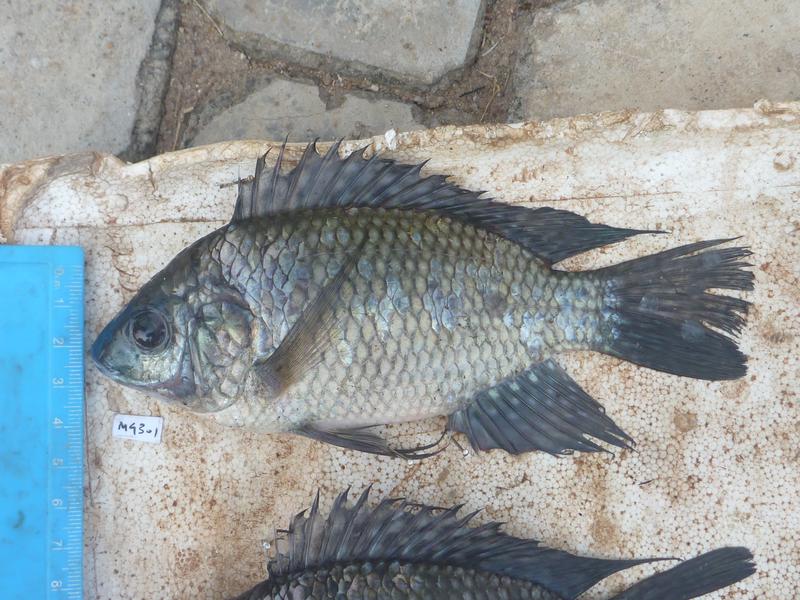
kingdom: Animalia
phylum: Chordata
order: Perciformes
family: Cichlidae
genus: Oreochromis
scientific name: Oreochromis leucostictus
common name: Blue spotted tilapia
